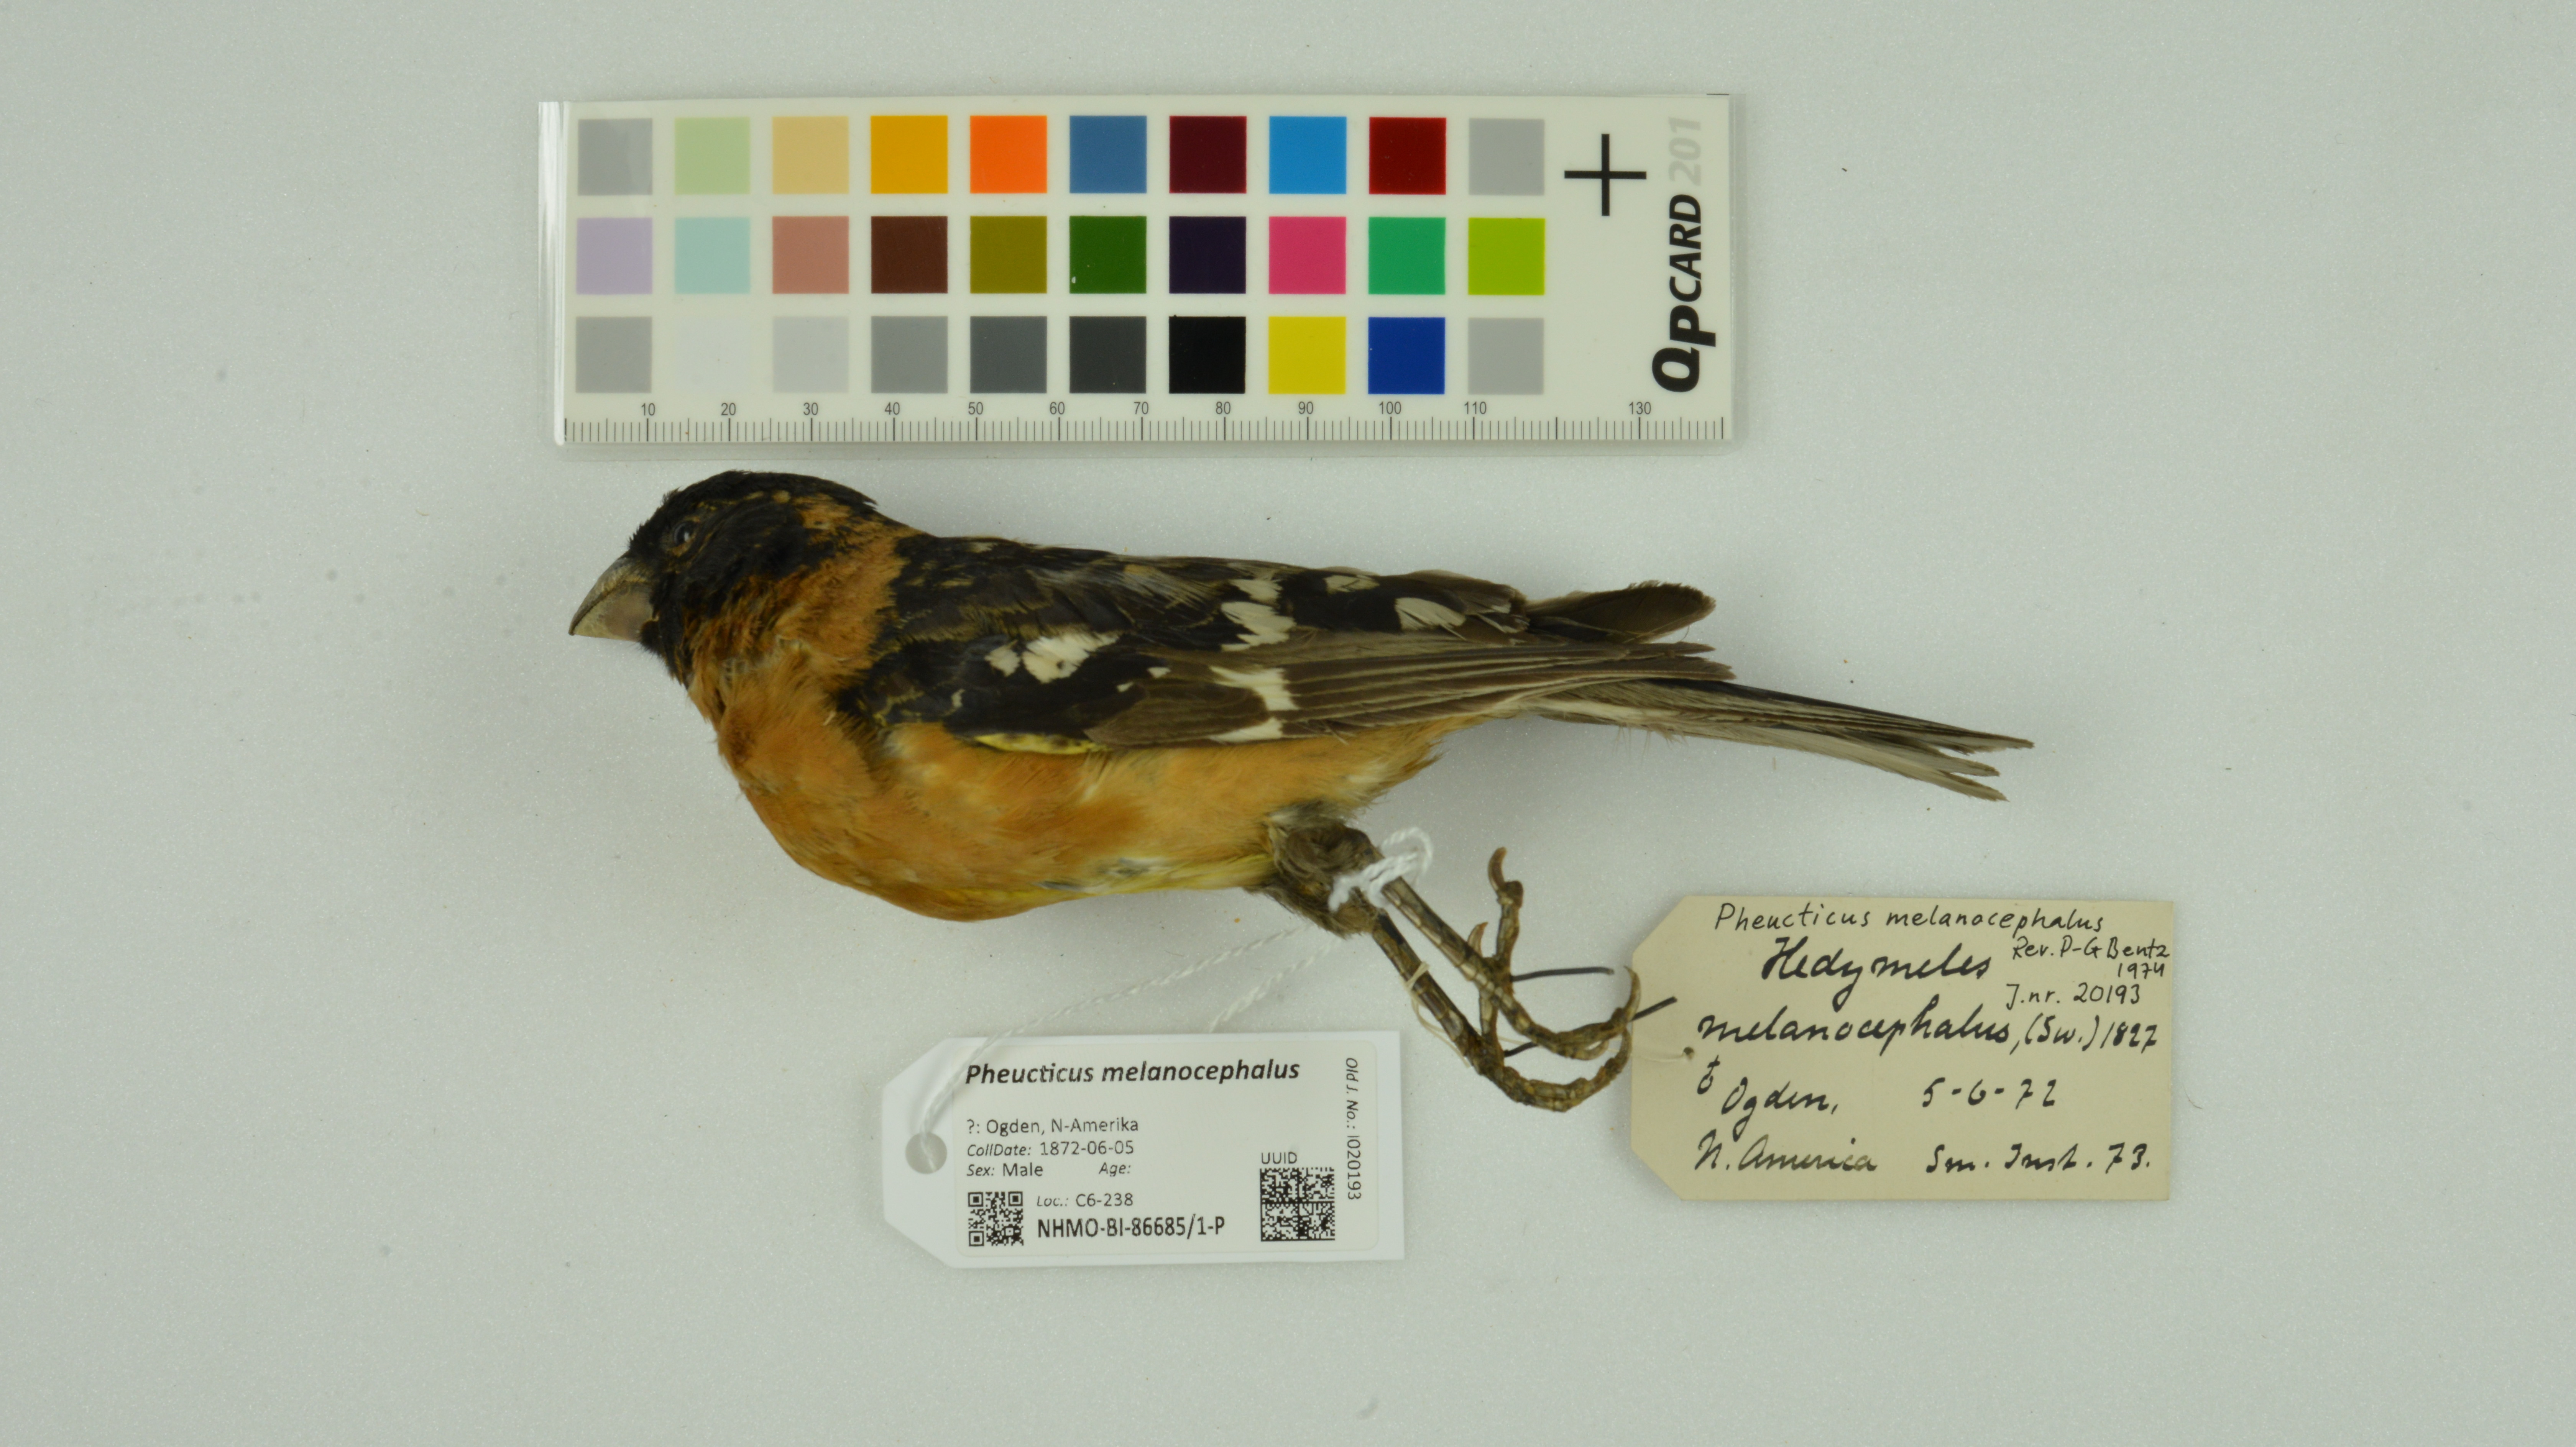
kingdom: Animalia
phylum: Chordata
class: Aves
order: Passeriformes
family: Cardinalidae
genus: Pheucticus
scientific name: Pheucticus melanocephalus
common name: Black-headed grosbeak
